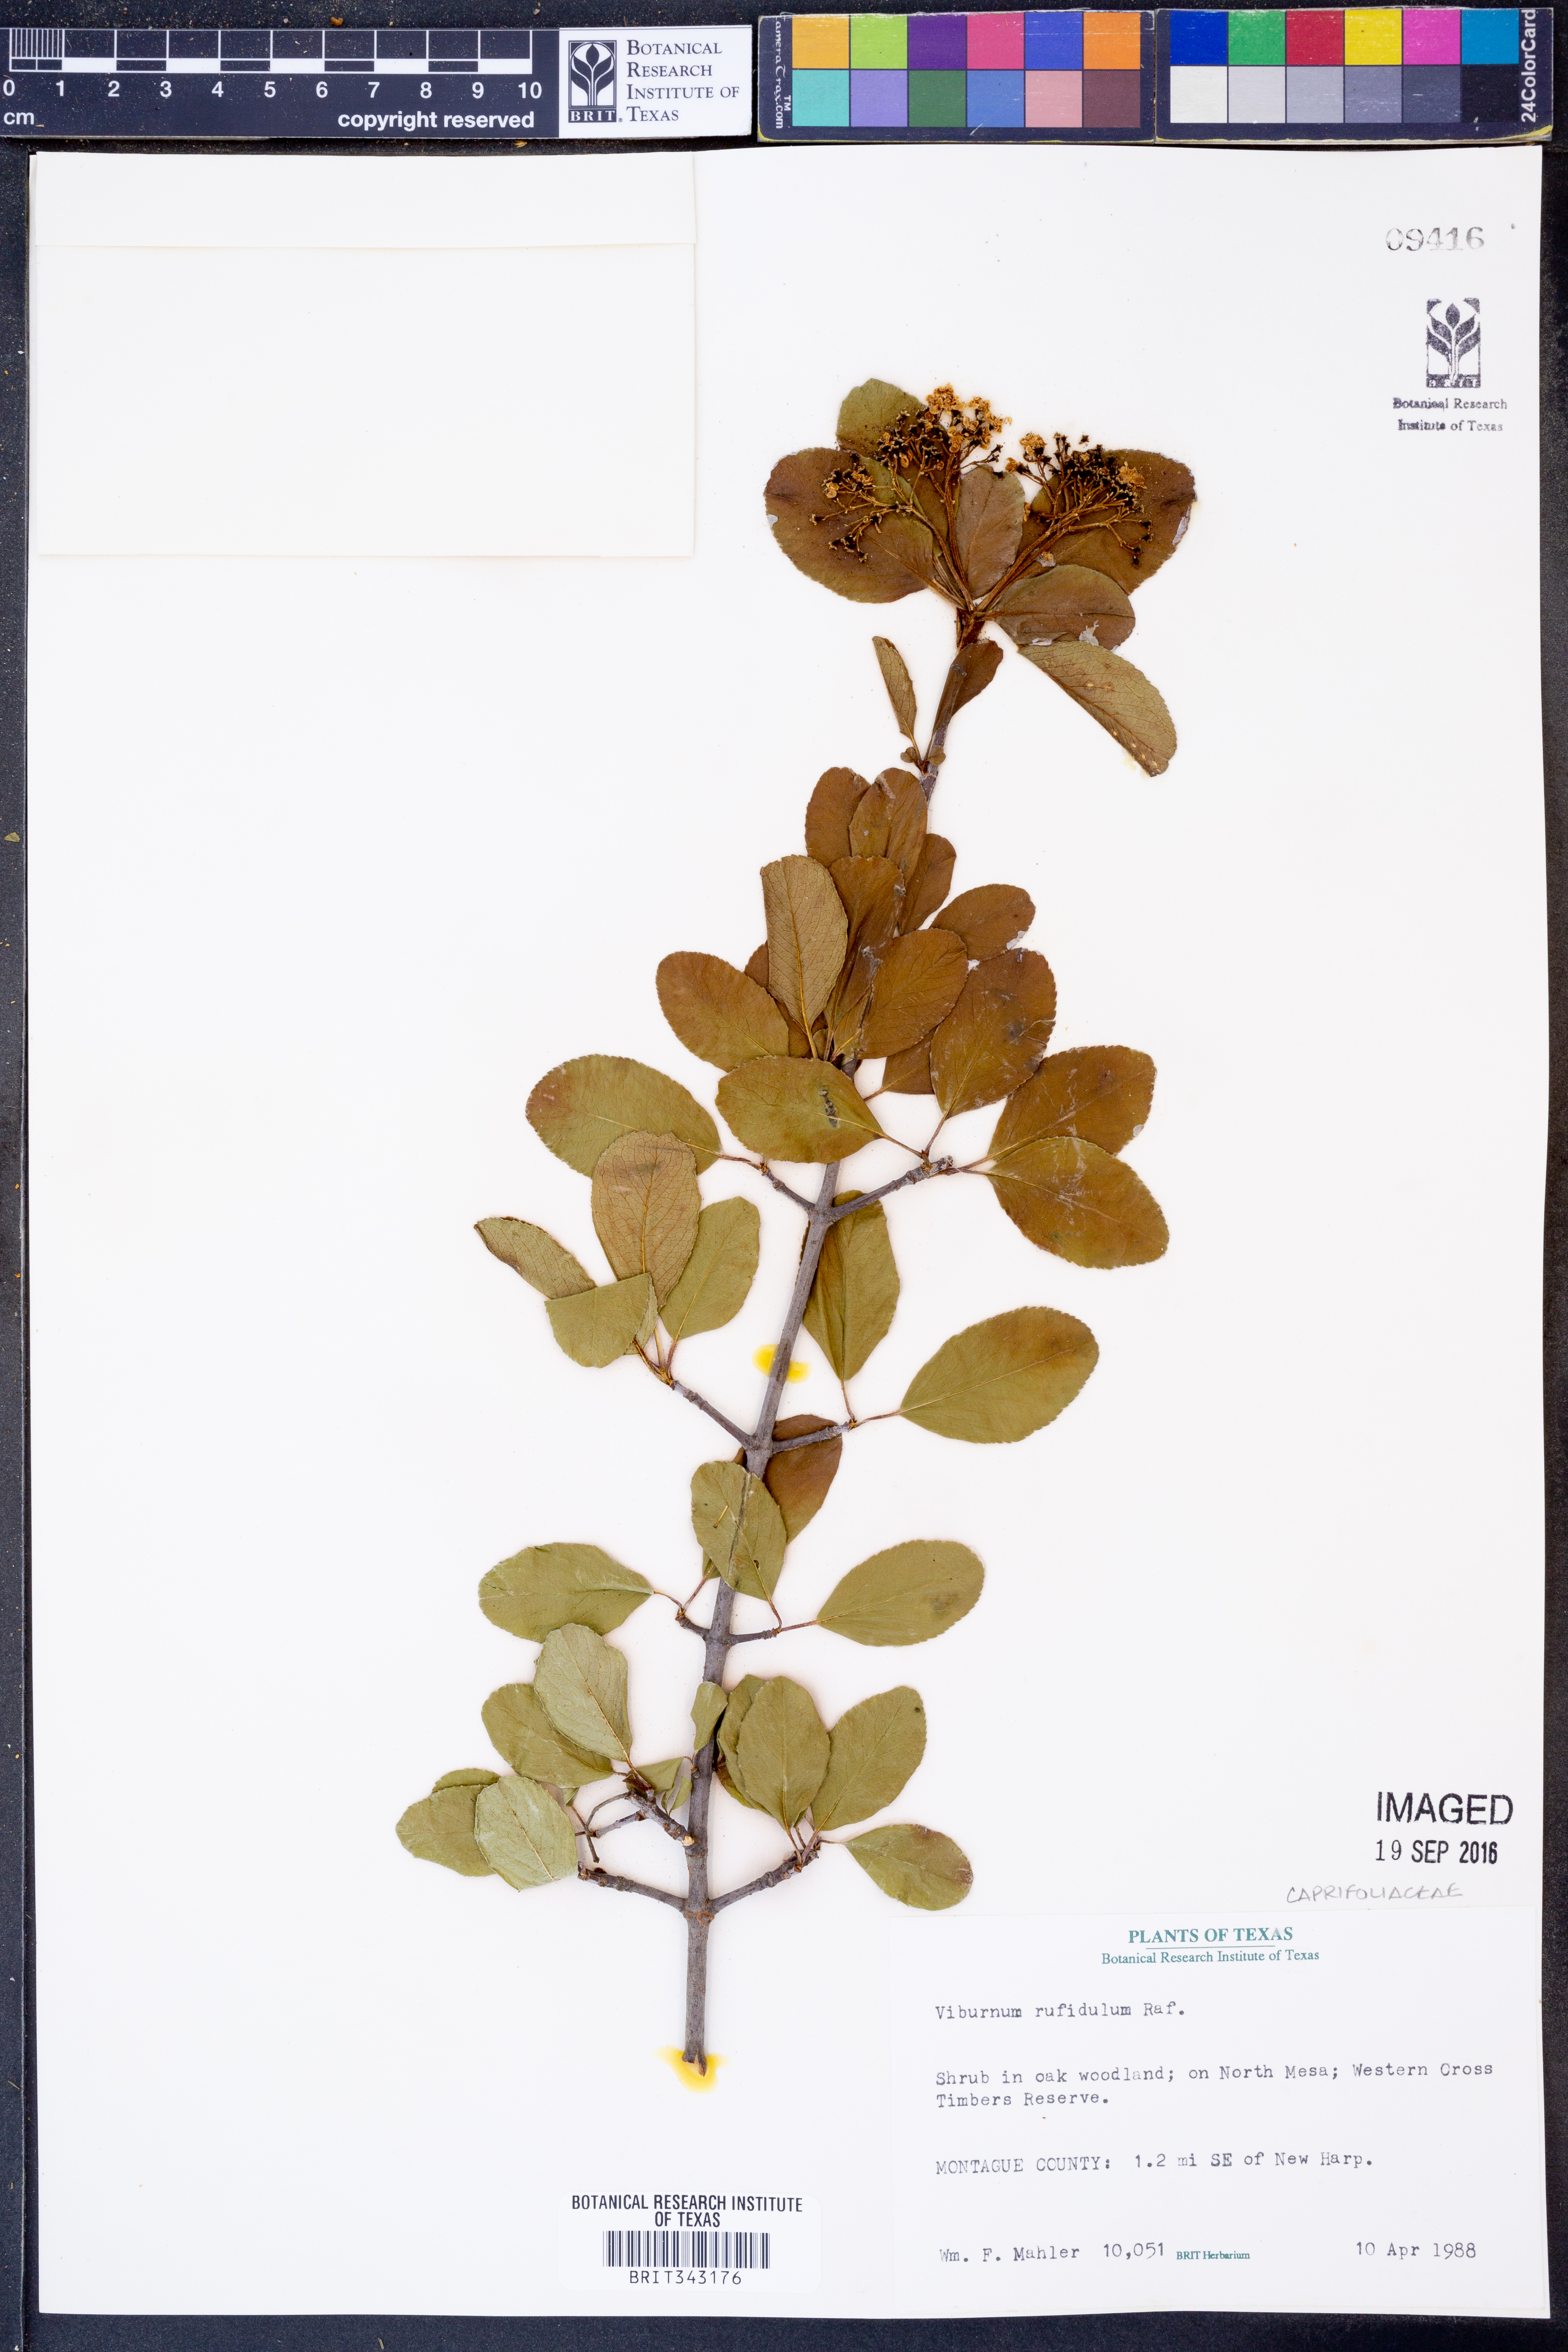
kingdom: Plantae
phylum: Tracheophyta
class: Magnoliopsida
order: Dipsacales
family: Viburnaceae
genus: Viburnum
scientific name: Viburnum rufidulum
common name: Blue haw
